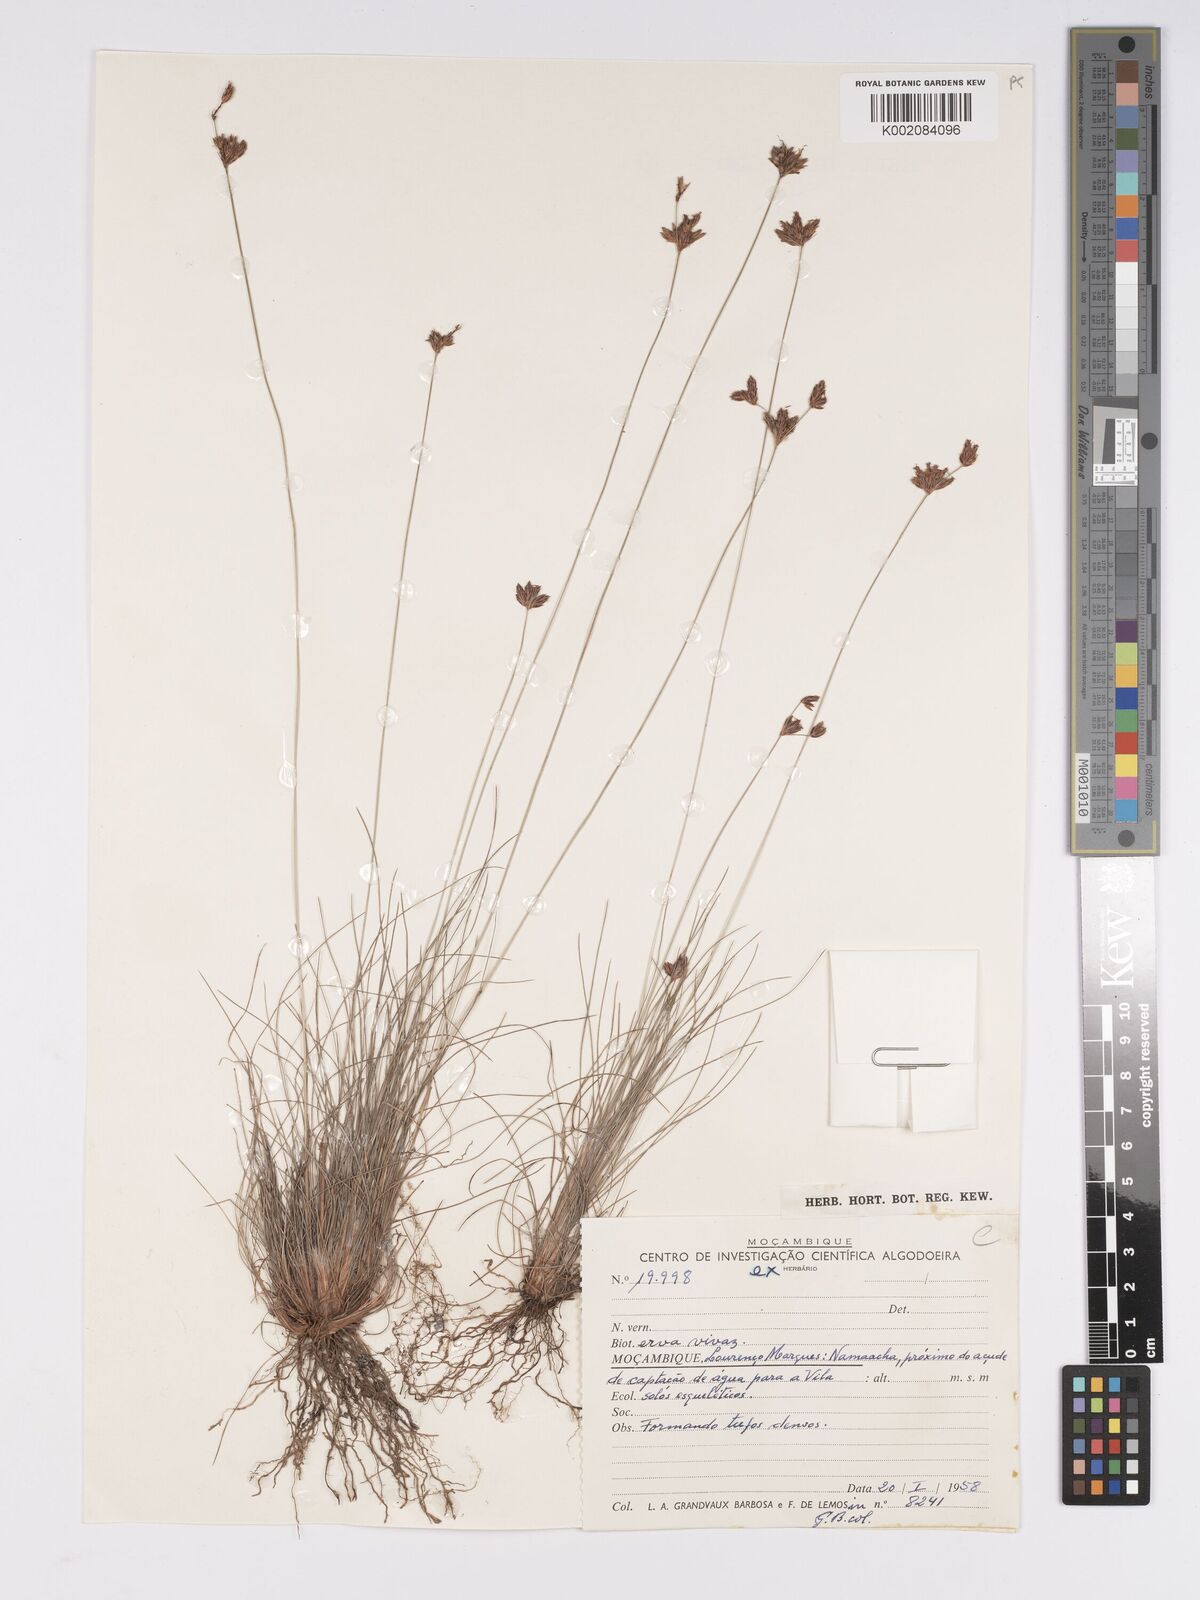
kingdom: Plantae
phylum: Tracheophyta
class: Liliopsida
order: Poales
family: Cyperaceae
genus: Bulbostylis
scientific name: Bulbostylis
